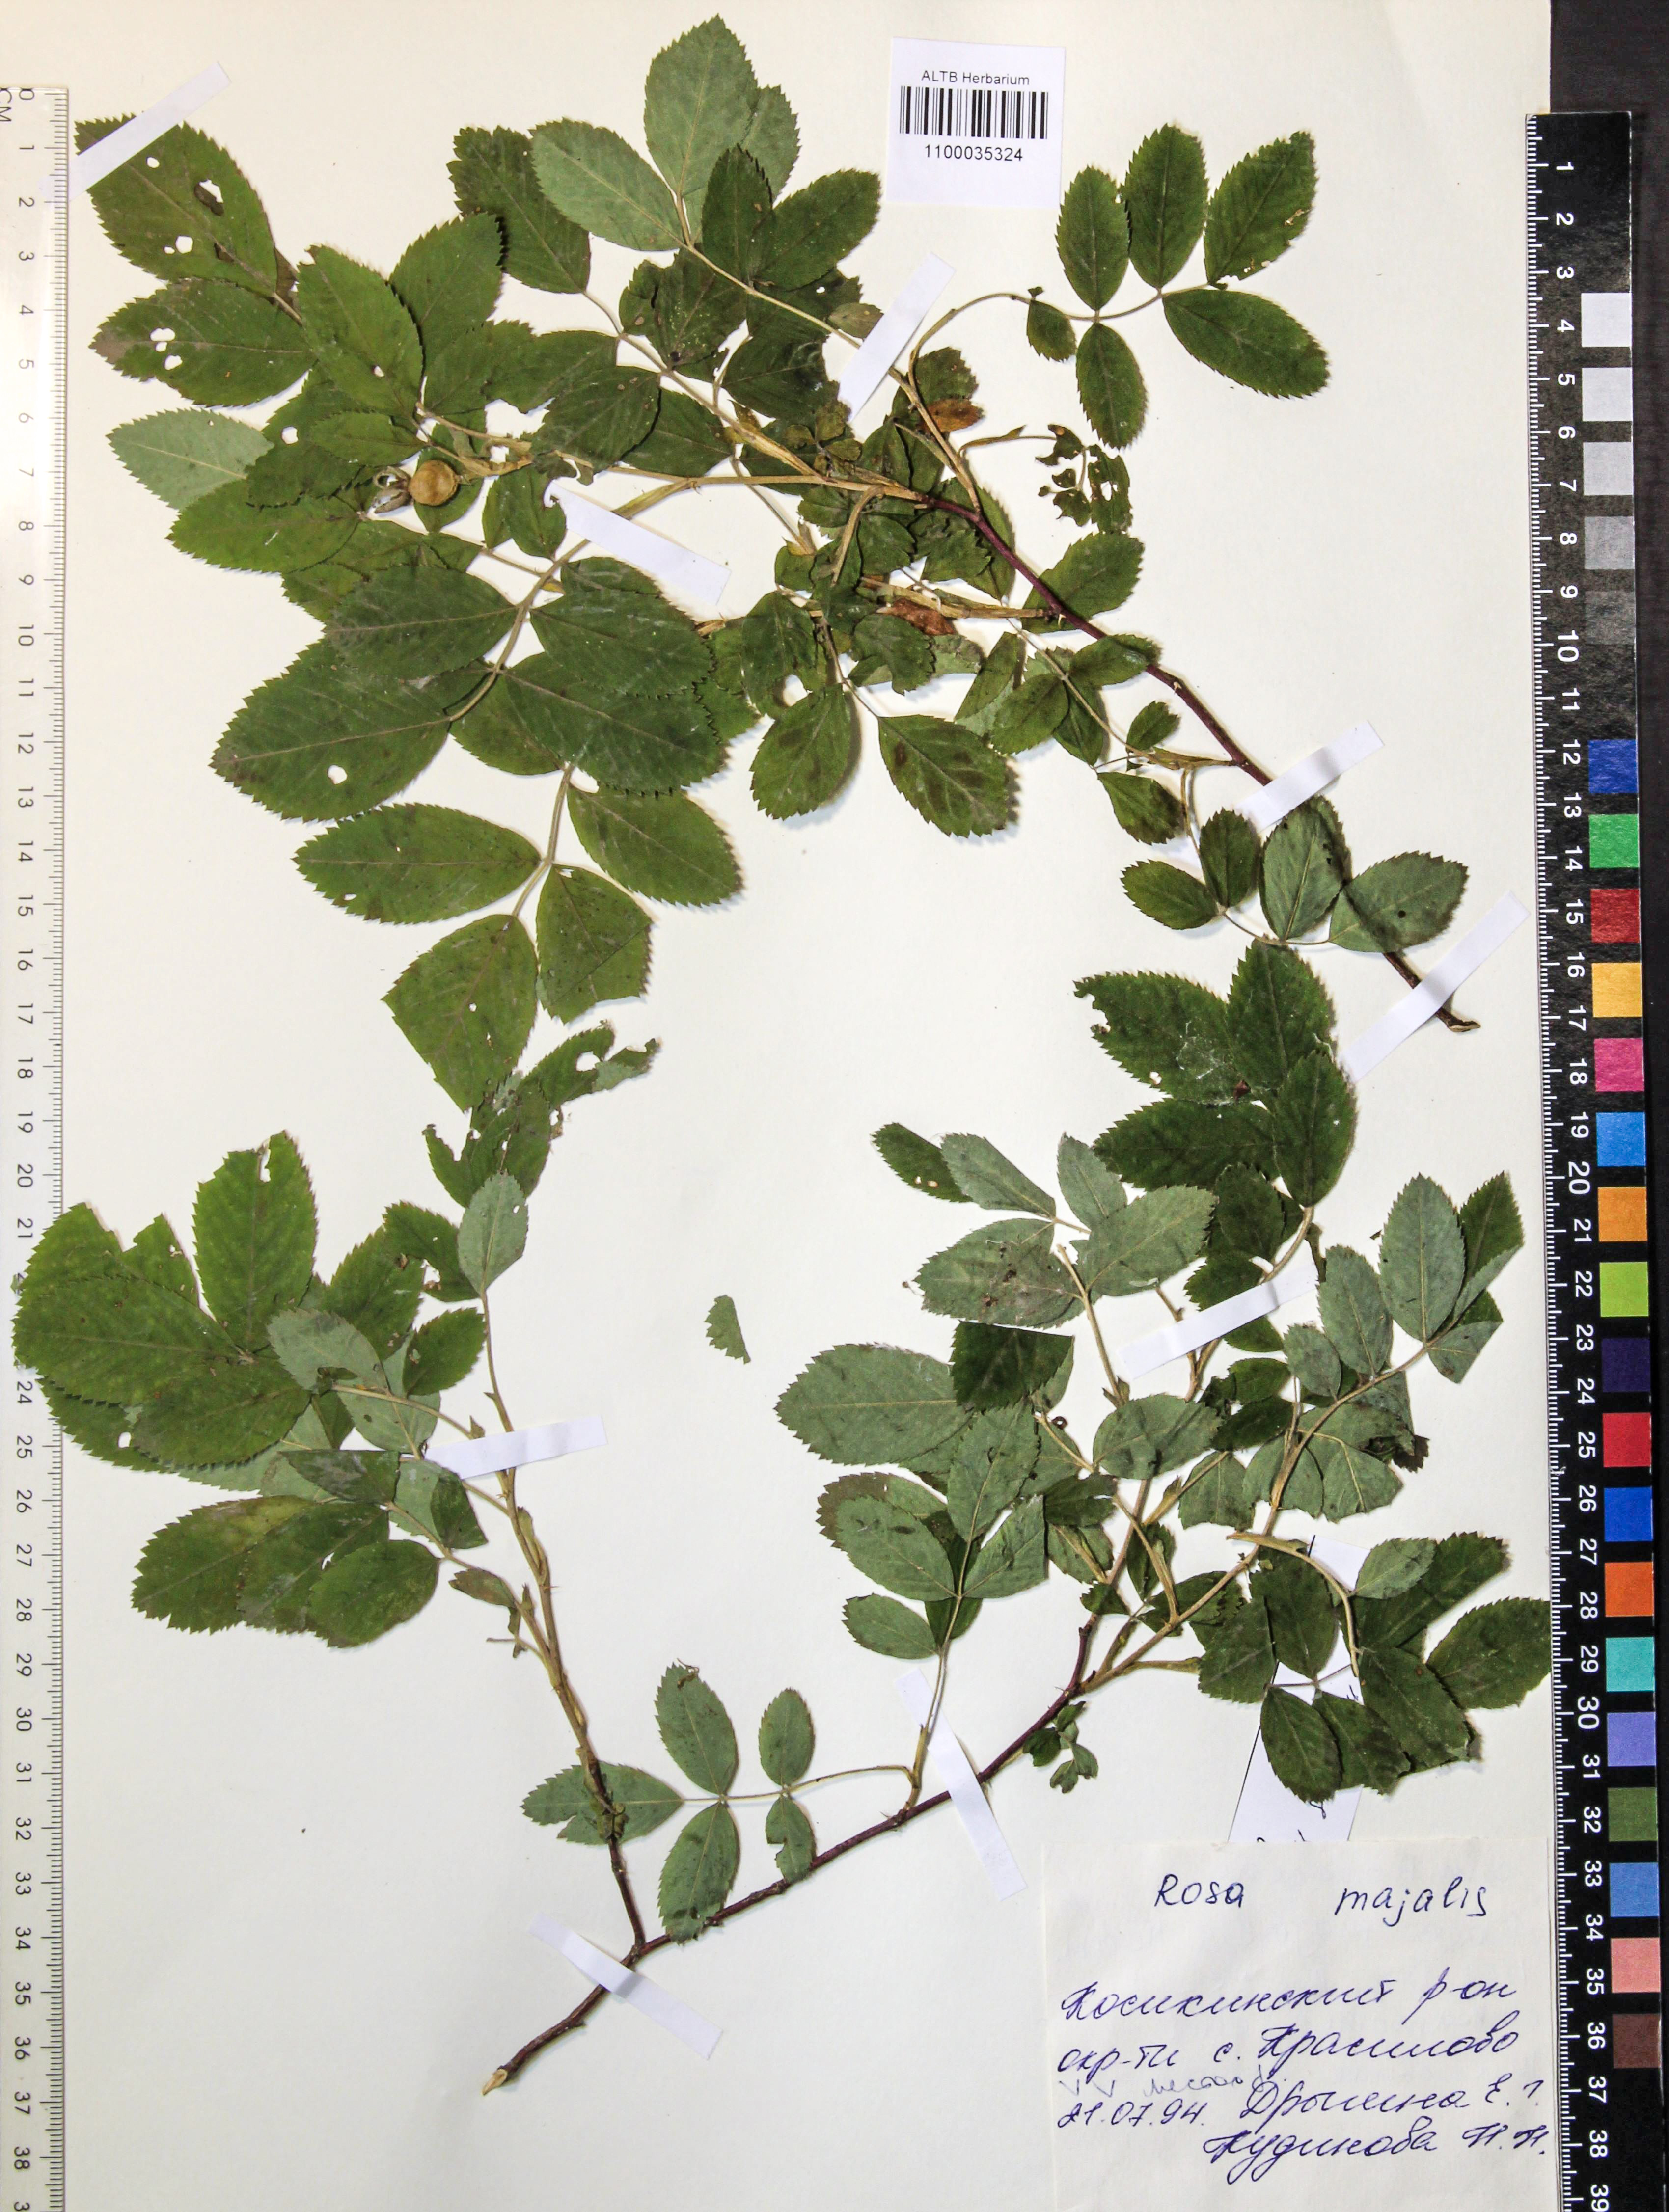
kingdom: Plantae
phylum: Tracheophyta
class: Magnoliopsida
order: Rosales
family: Rosaceae
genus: Rosa
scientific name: Rosa majalis
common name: Cinnamon rose
